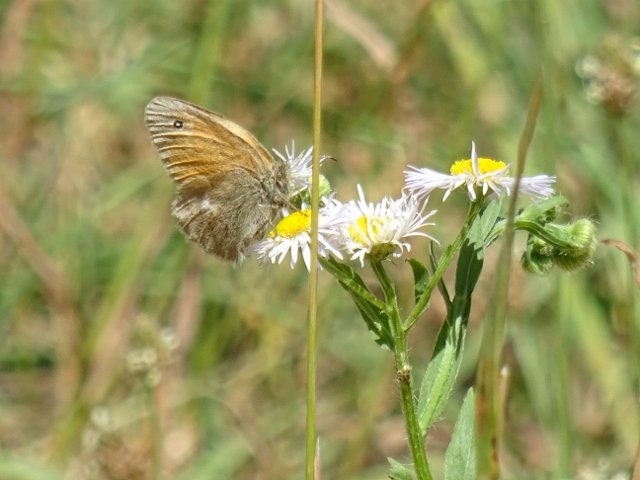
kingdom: Animalia
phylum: Arthropoda
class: Insecta
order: Lepidoptera
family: Nymphalidae
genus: Coenonympha
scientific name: Coenonympha tullia
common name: Large Heath
